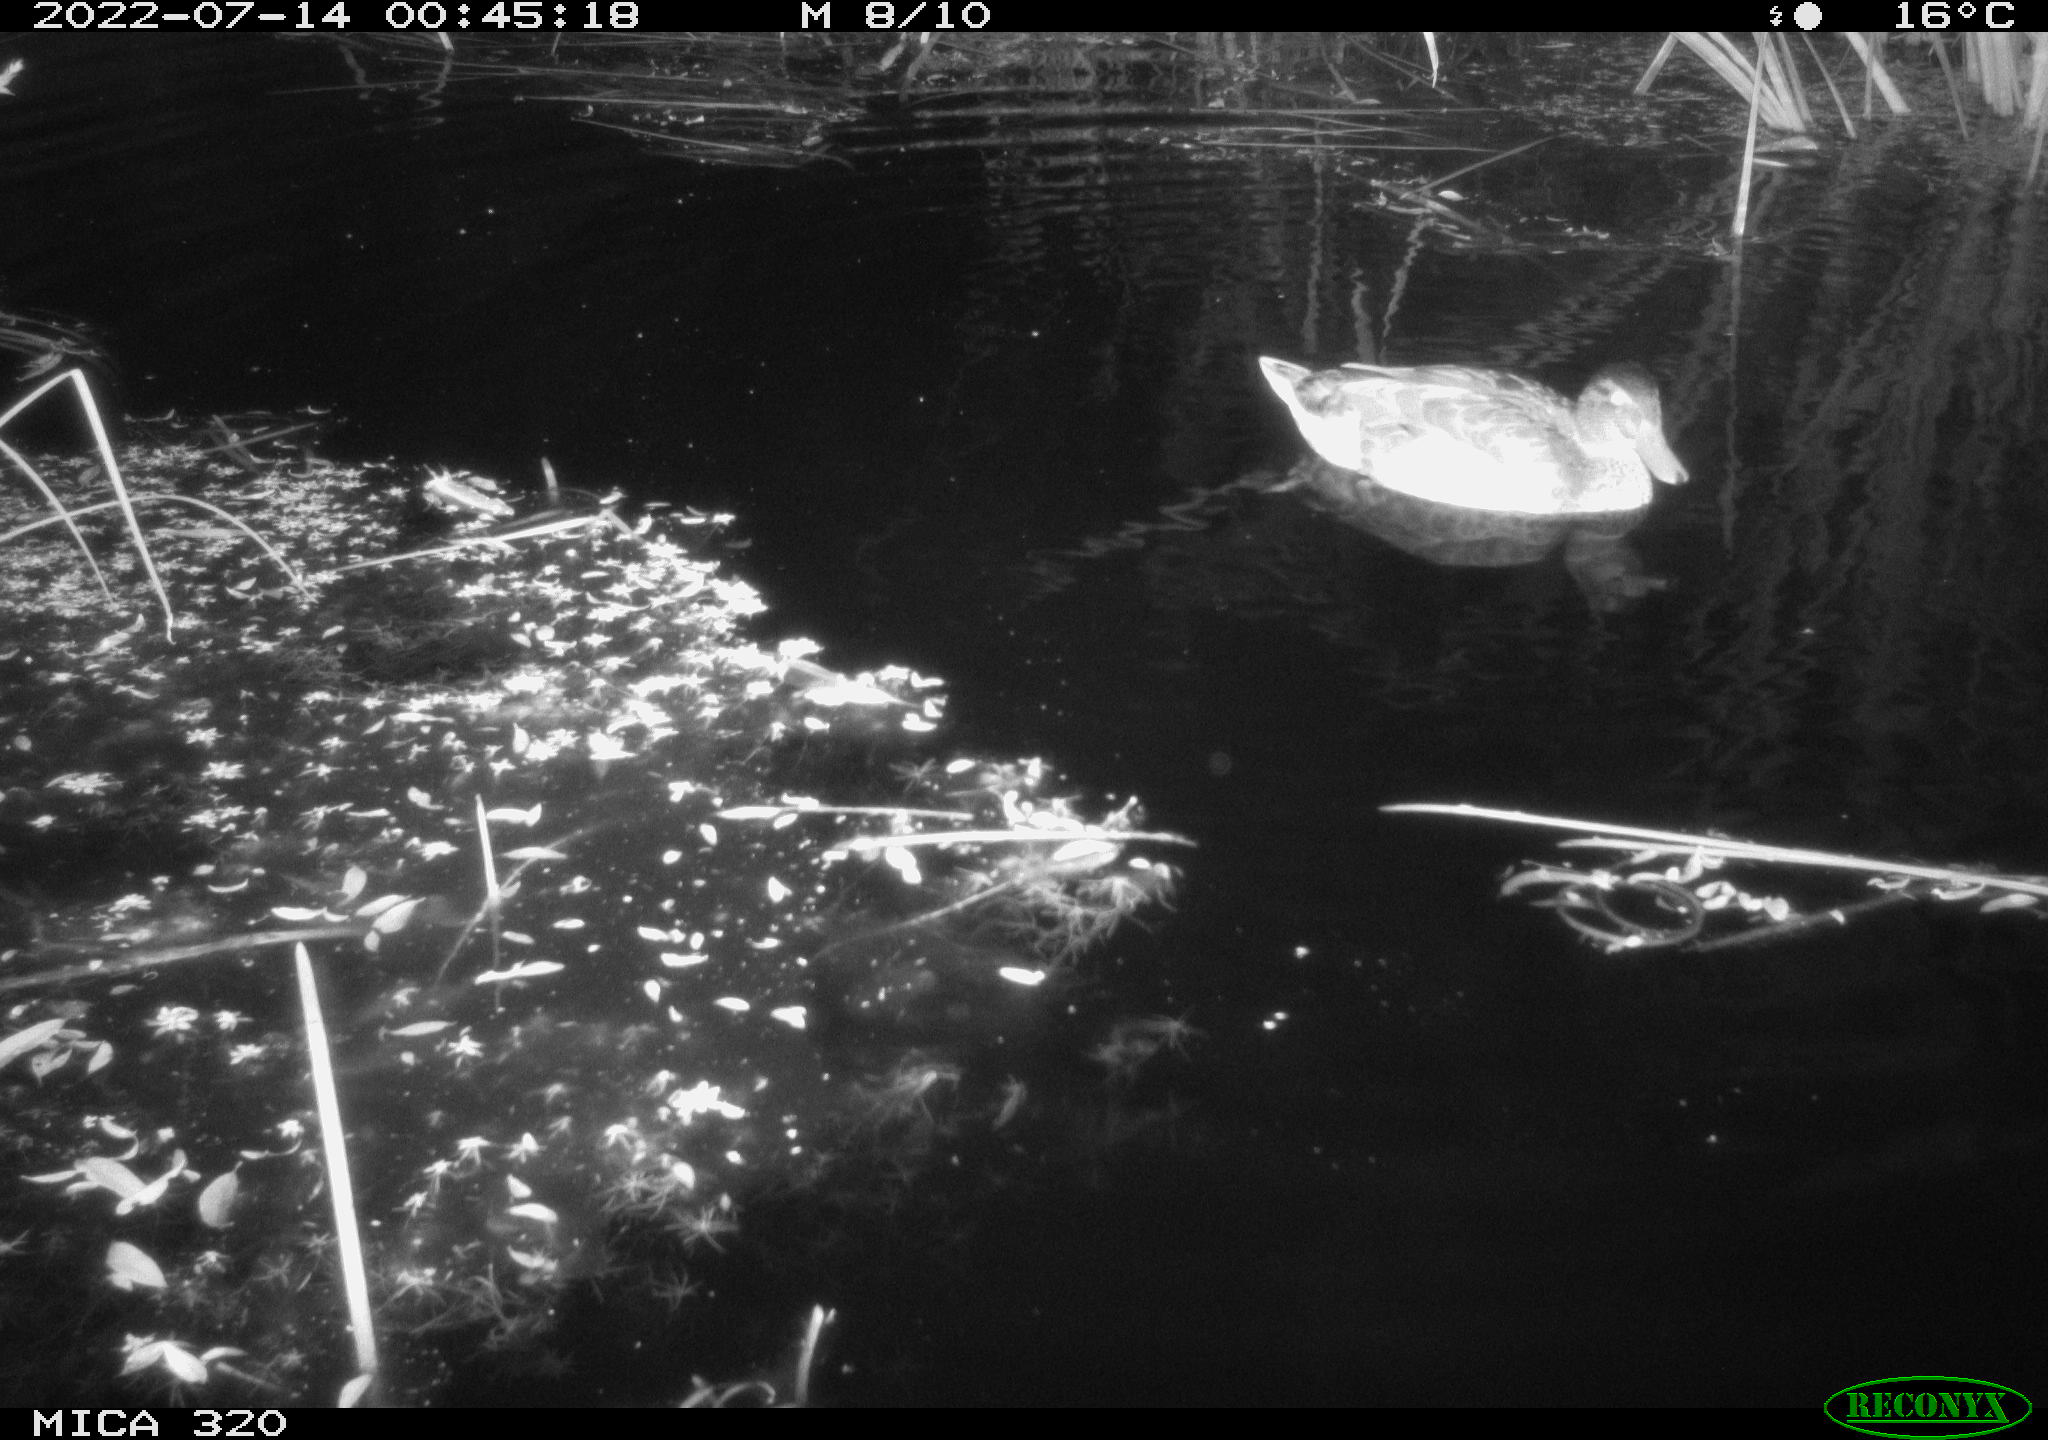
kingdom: Animalia
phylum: Chordata
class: Aves
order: Anseriformes
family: Anatidae
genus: Mareca
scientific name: Mareca strepera
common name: Gadwall
